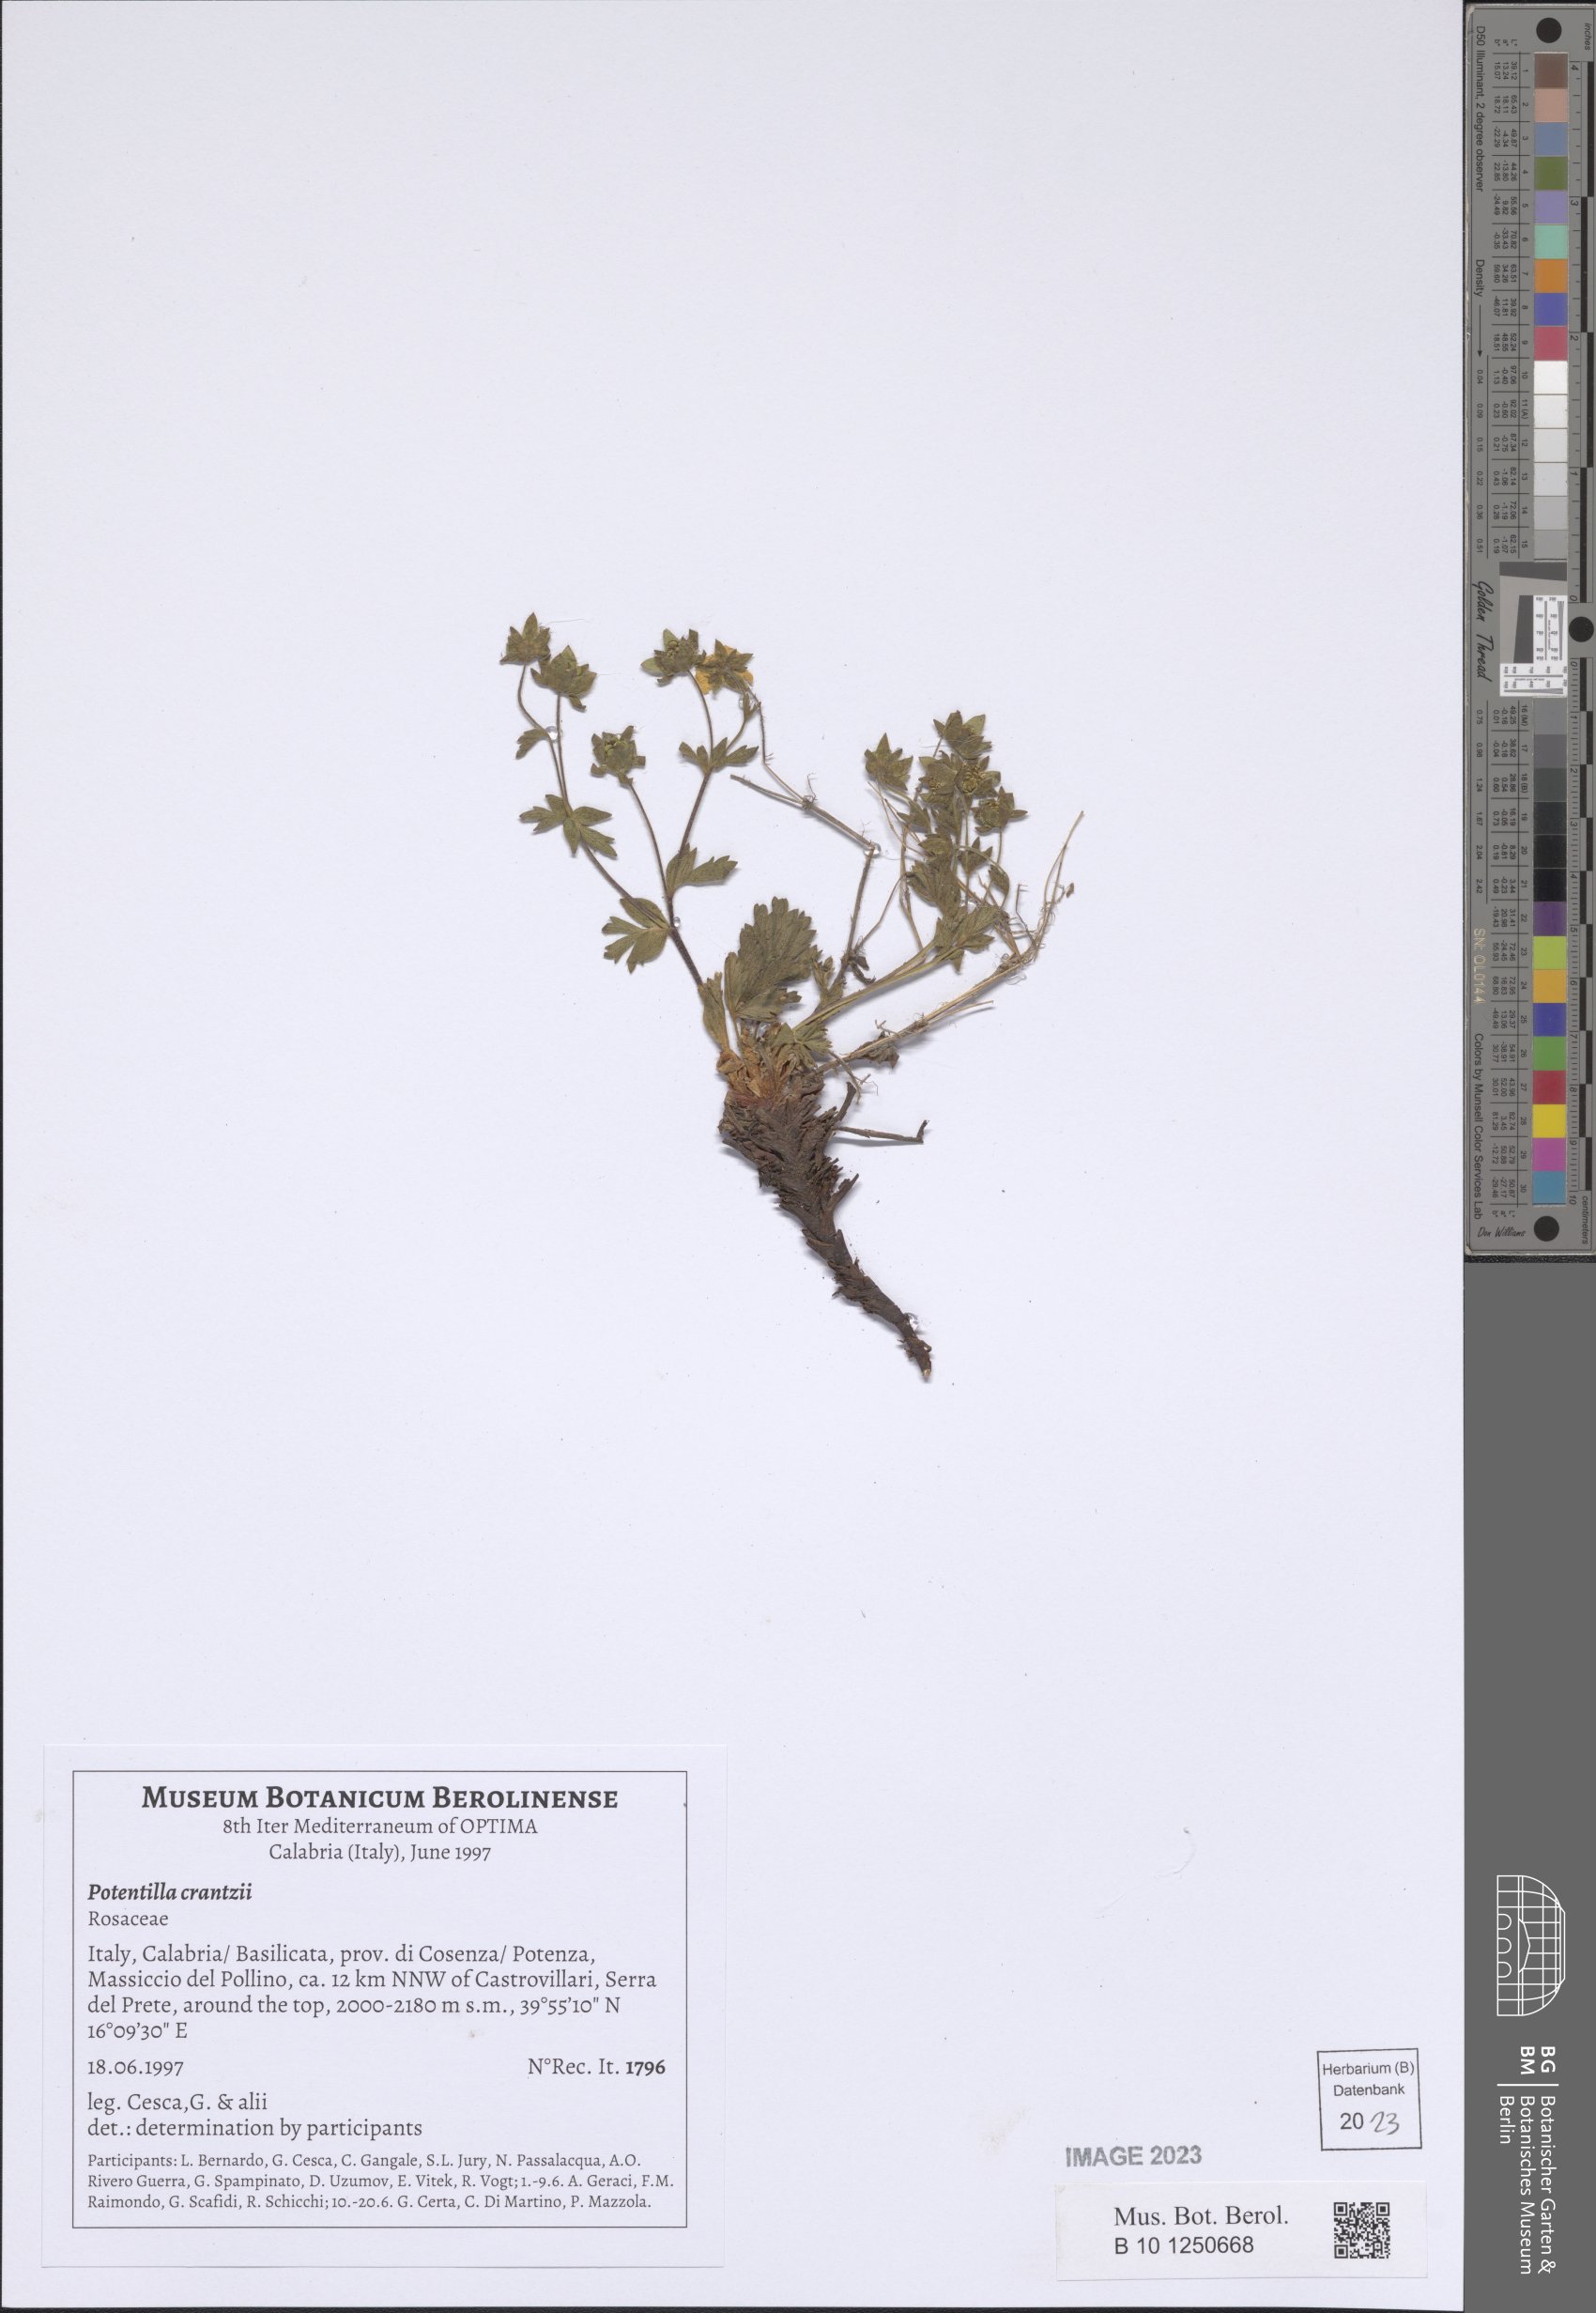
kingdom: Plantae
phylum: Tracheophyta
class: Magnoliopsida
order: Rosales
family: Rosaceae
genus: Potentilla
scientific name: Potentilla crantzii
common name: Alpine cinquefoil
